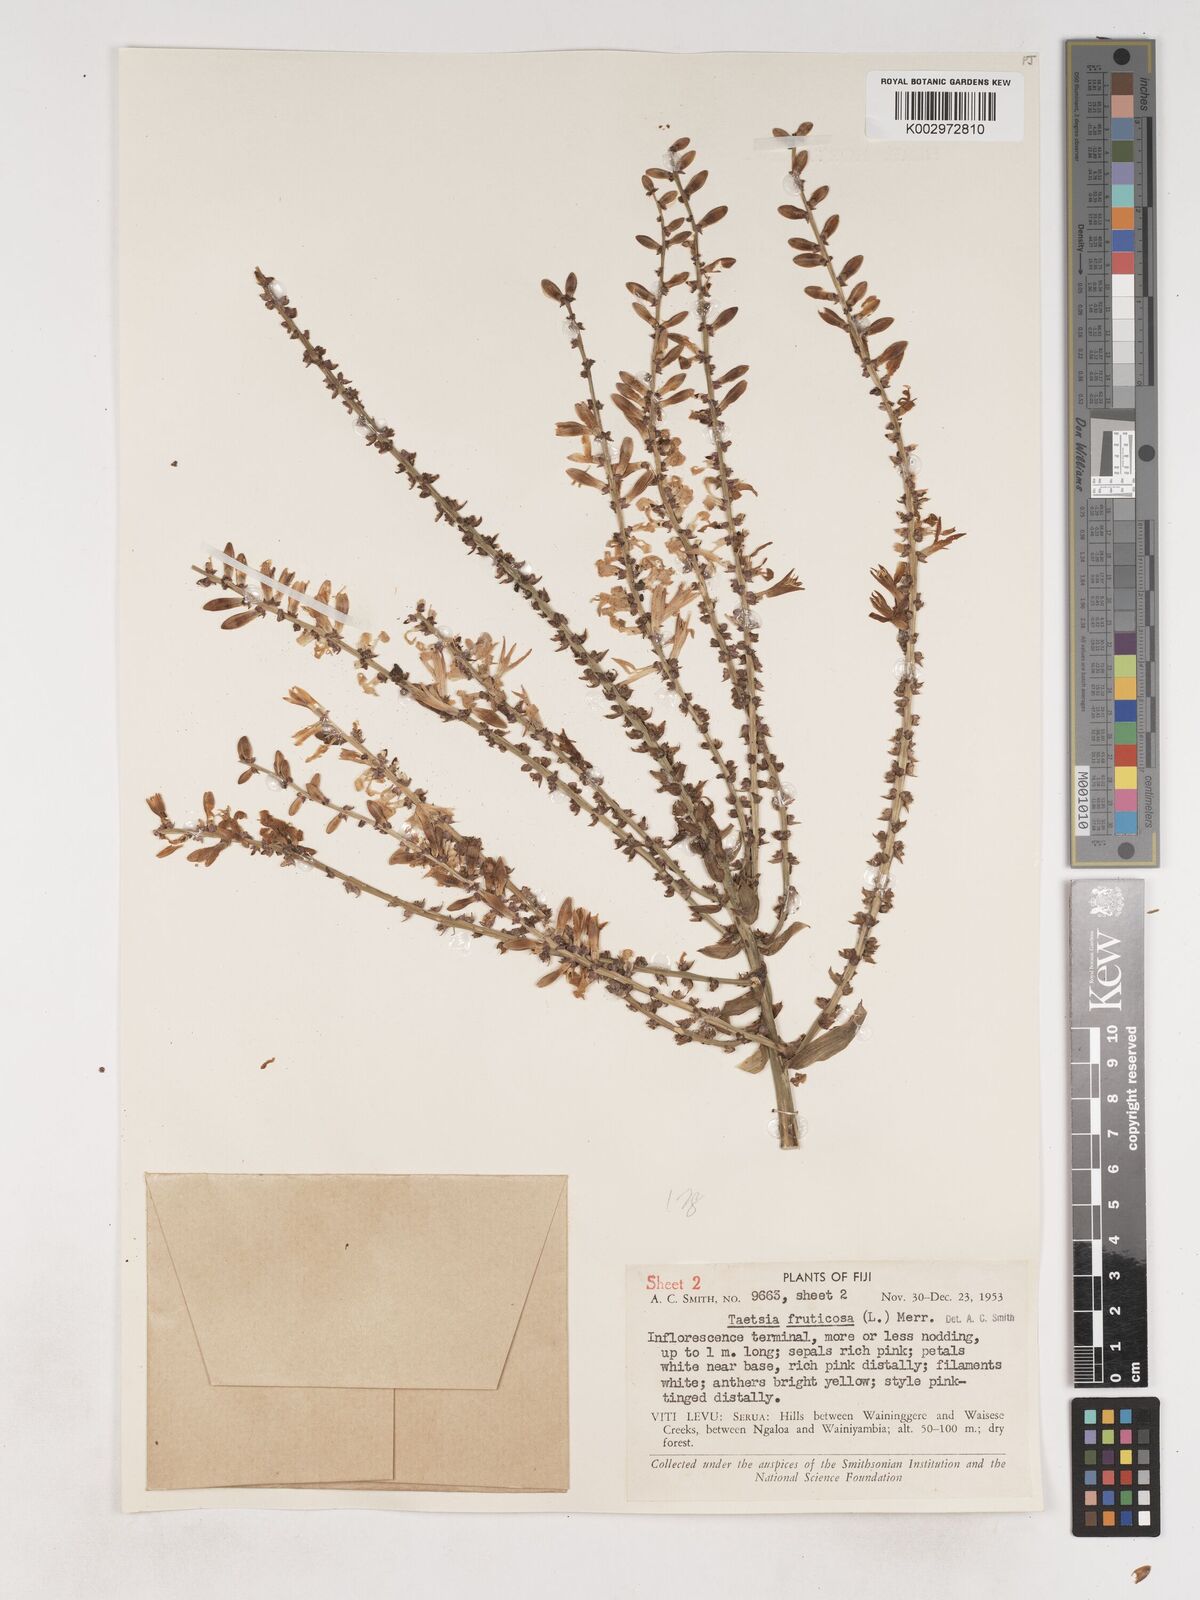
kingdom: Plantae
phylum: Tracheophyta
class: Liliopsida
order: Asparagales
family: Asparagaceae
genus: Cordyline
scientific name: Cordyline fruticosa
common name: Good-luck-plant
